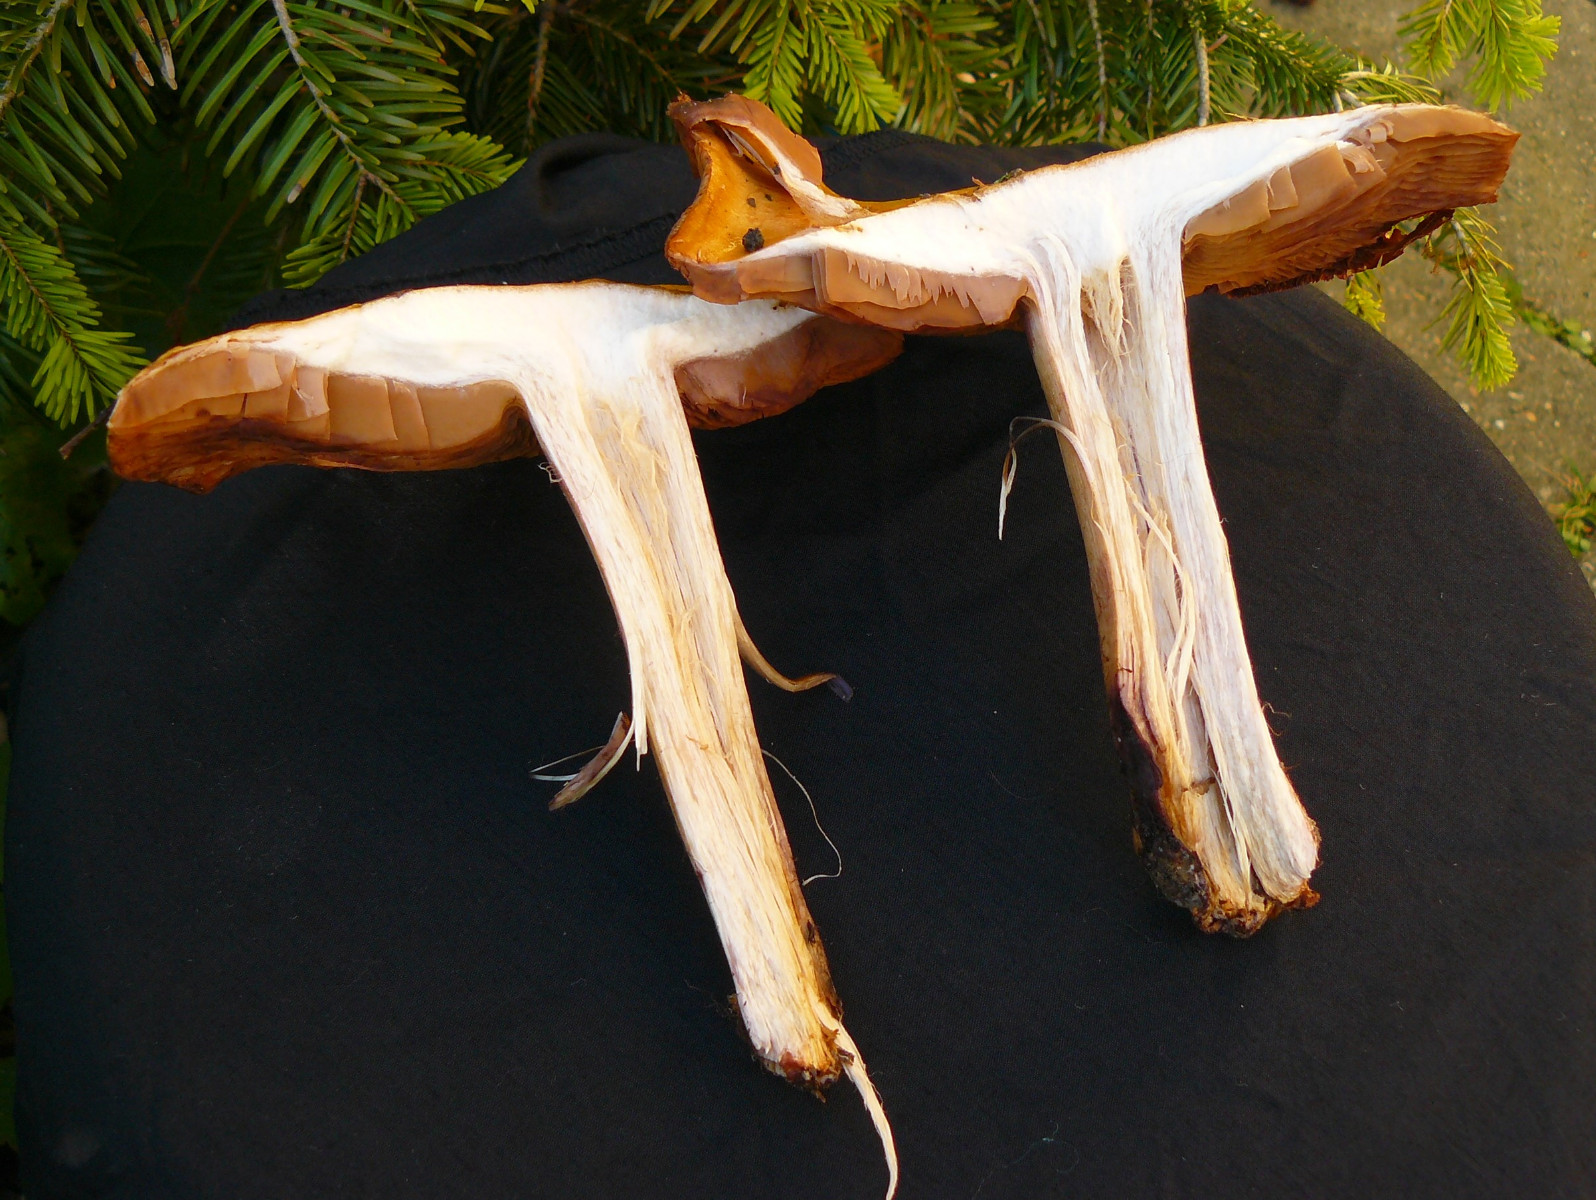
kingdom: Fungi
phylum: Basidiomycota
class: Agaricomycetes
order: Agaricales
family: Cortinariaceae
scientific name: Cortinariaceae
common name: slørhatfamilien
